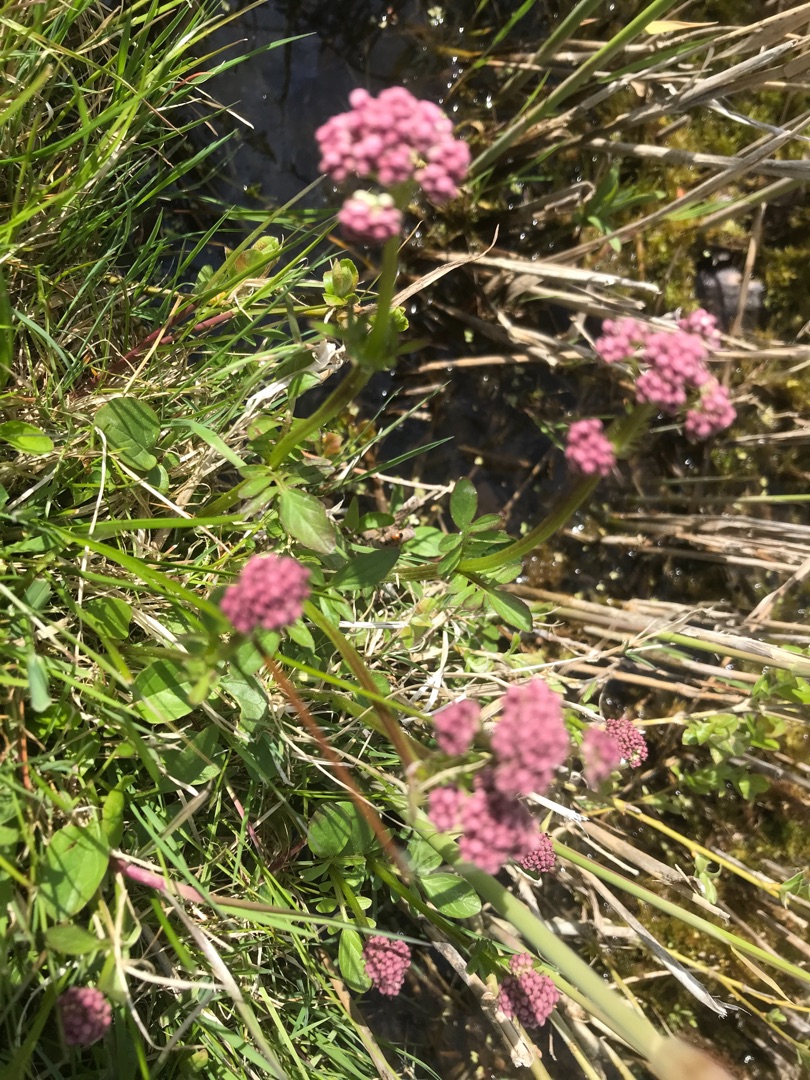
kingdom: Plantae
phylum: Tracheophyta
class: Magnoliopsida
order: Dipsacales
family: Caprifoliaceae
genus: Valeriana
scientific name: Valeriana dioica
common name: Tvebo baldrian
